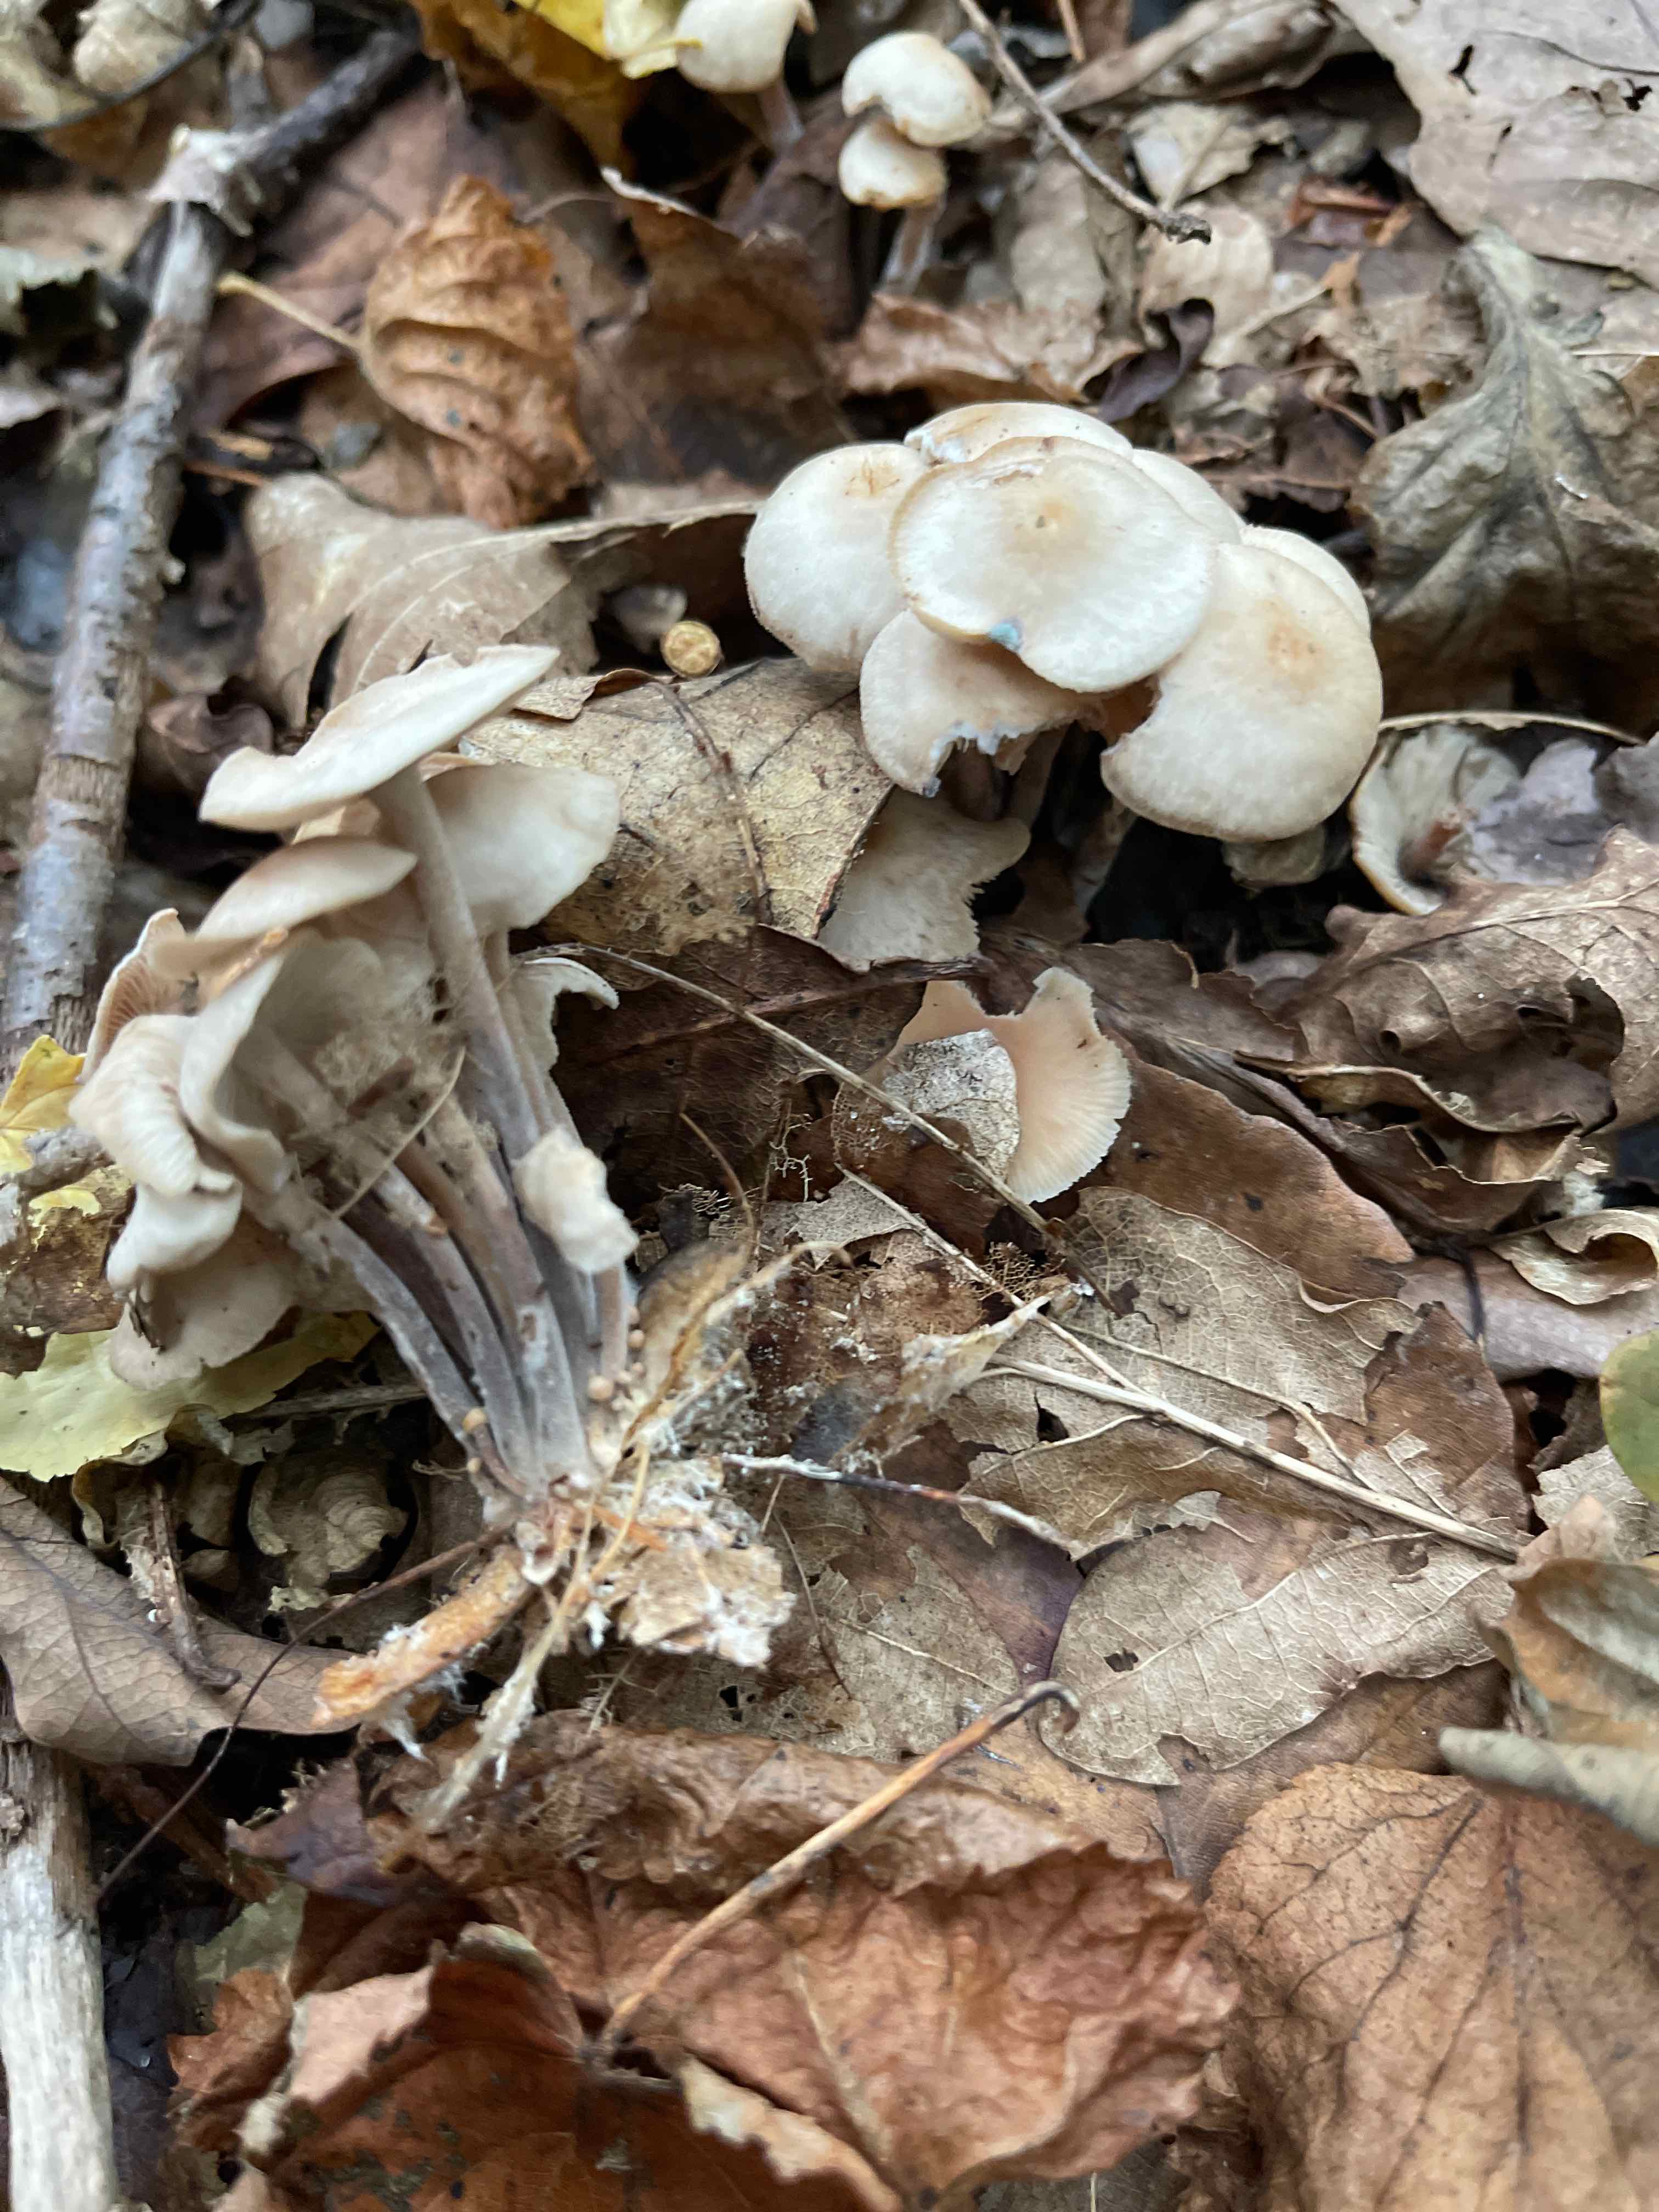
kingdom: Fungi
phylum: Basidiomycota
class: Agaricomycetes
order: Agaricales
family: Omphalotaceae
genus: Collybiopsis
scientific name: Collybiopsis confluens
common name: knippe-fladhat
